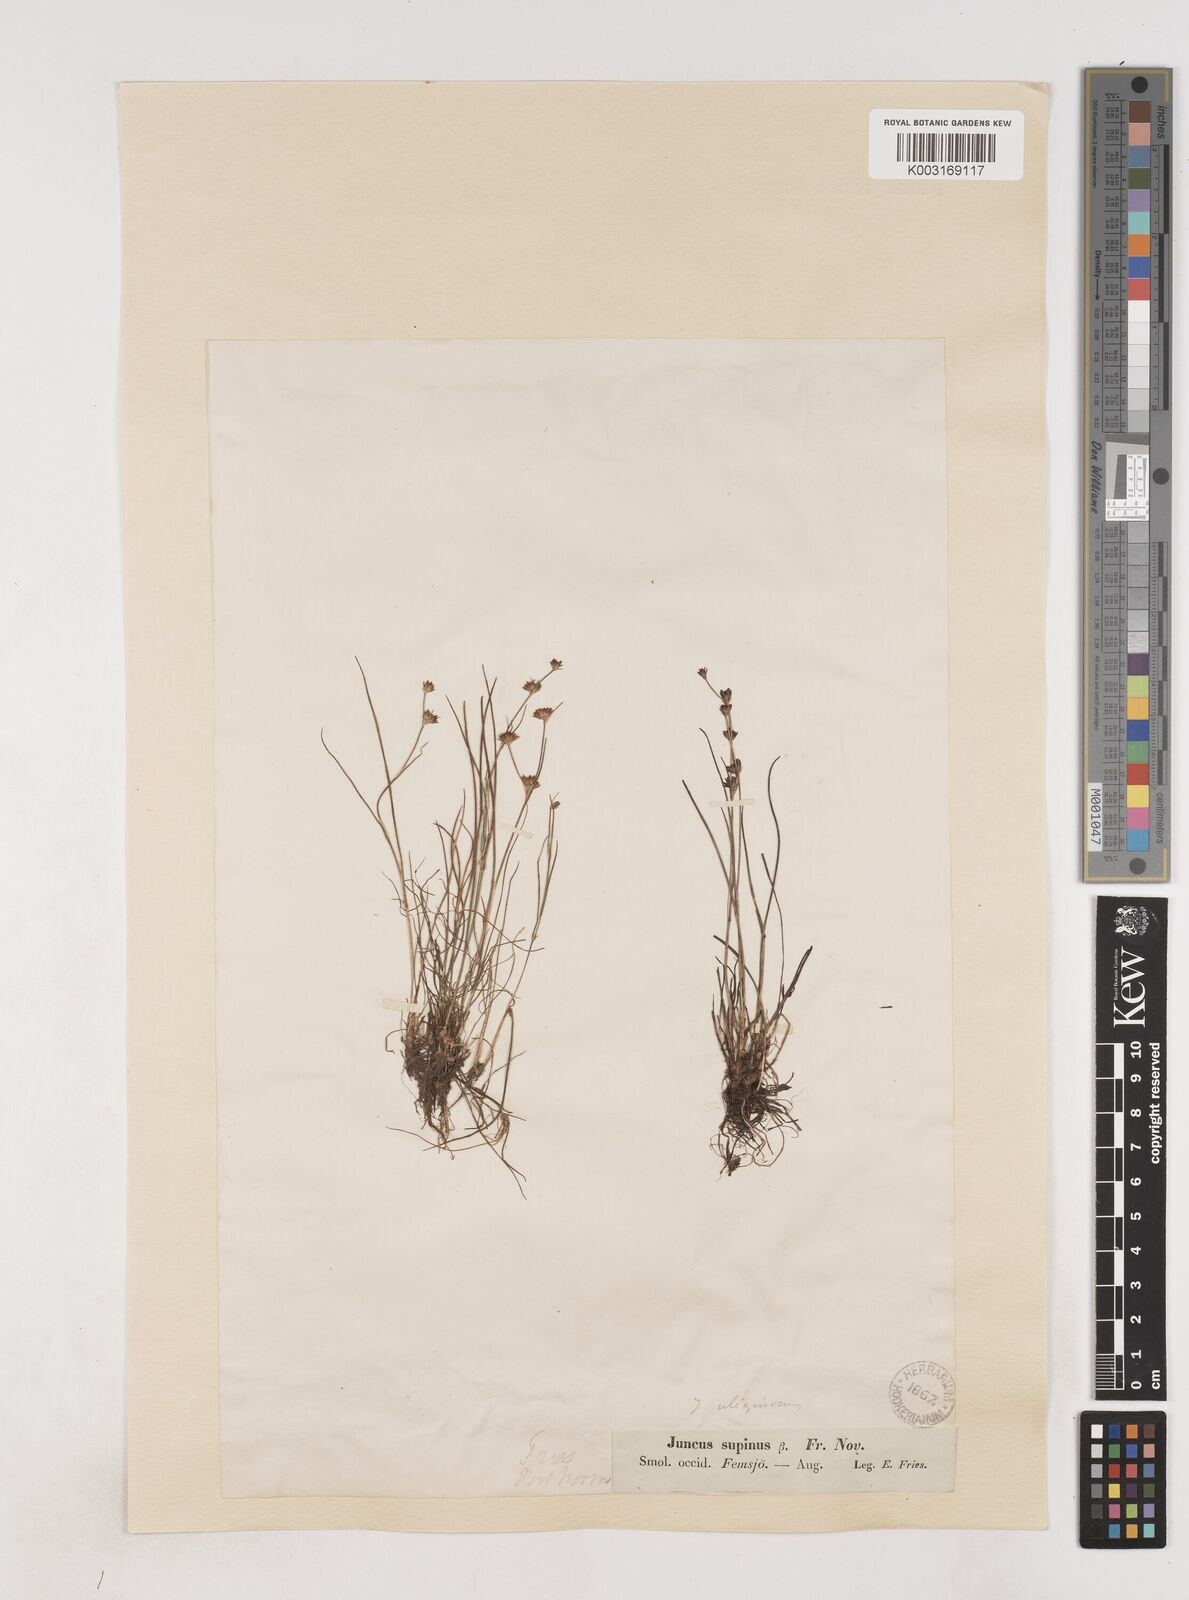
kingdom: Plantae
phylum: Tracheophyta
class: Liliopsida
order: Poales
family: Juncaceae
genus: Juncus
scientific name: Juncus bulbosus
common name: Bulbous rush
